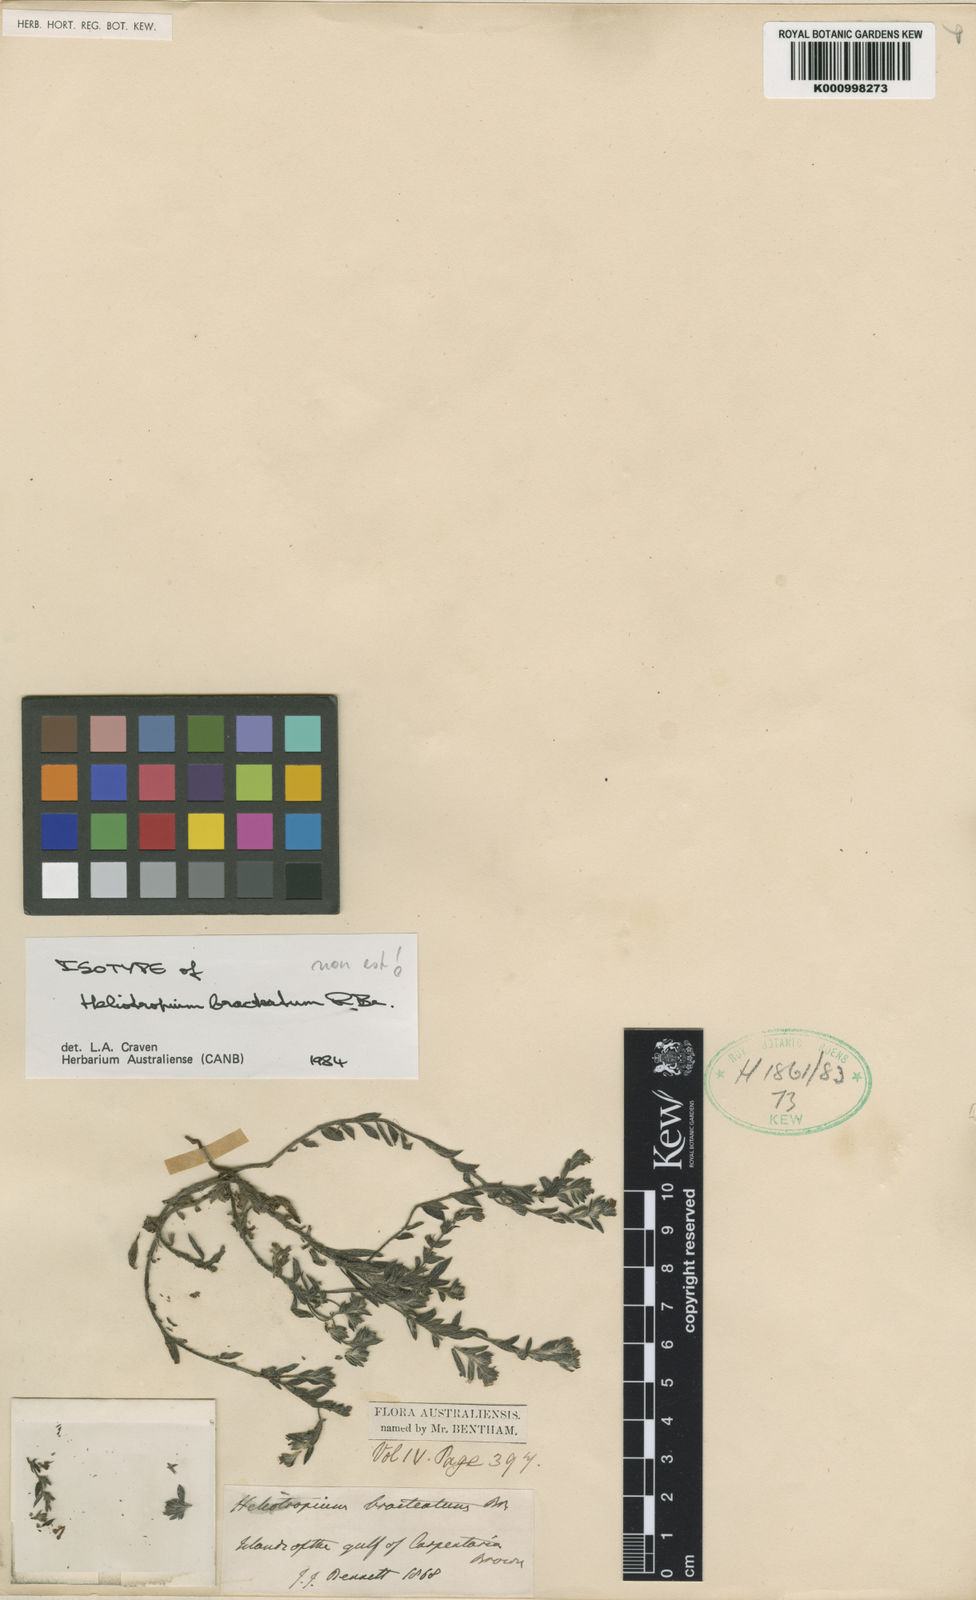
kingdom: Plantae
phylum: Tracheophyta
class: Magnoliopsida
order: Boraginales
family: Heliotropiaceae
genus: Euploca
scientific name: Euploca bracteata
